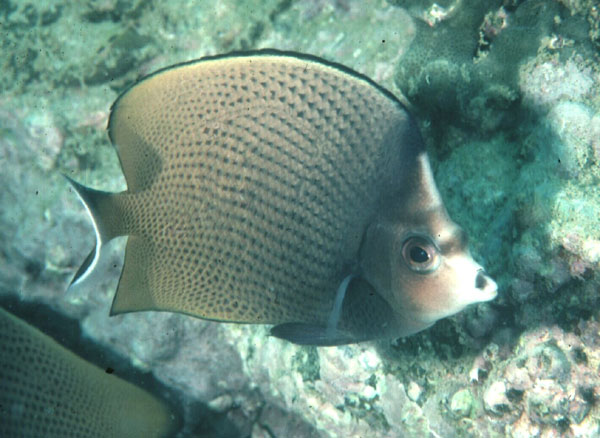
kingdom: Animalia
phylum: Chordata
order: Perciformes
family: Chaetodontidae
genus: Chaetodon
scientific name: Chaetodon nigropunctatus
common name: Black-spotted butterflyfish
